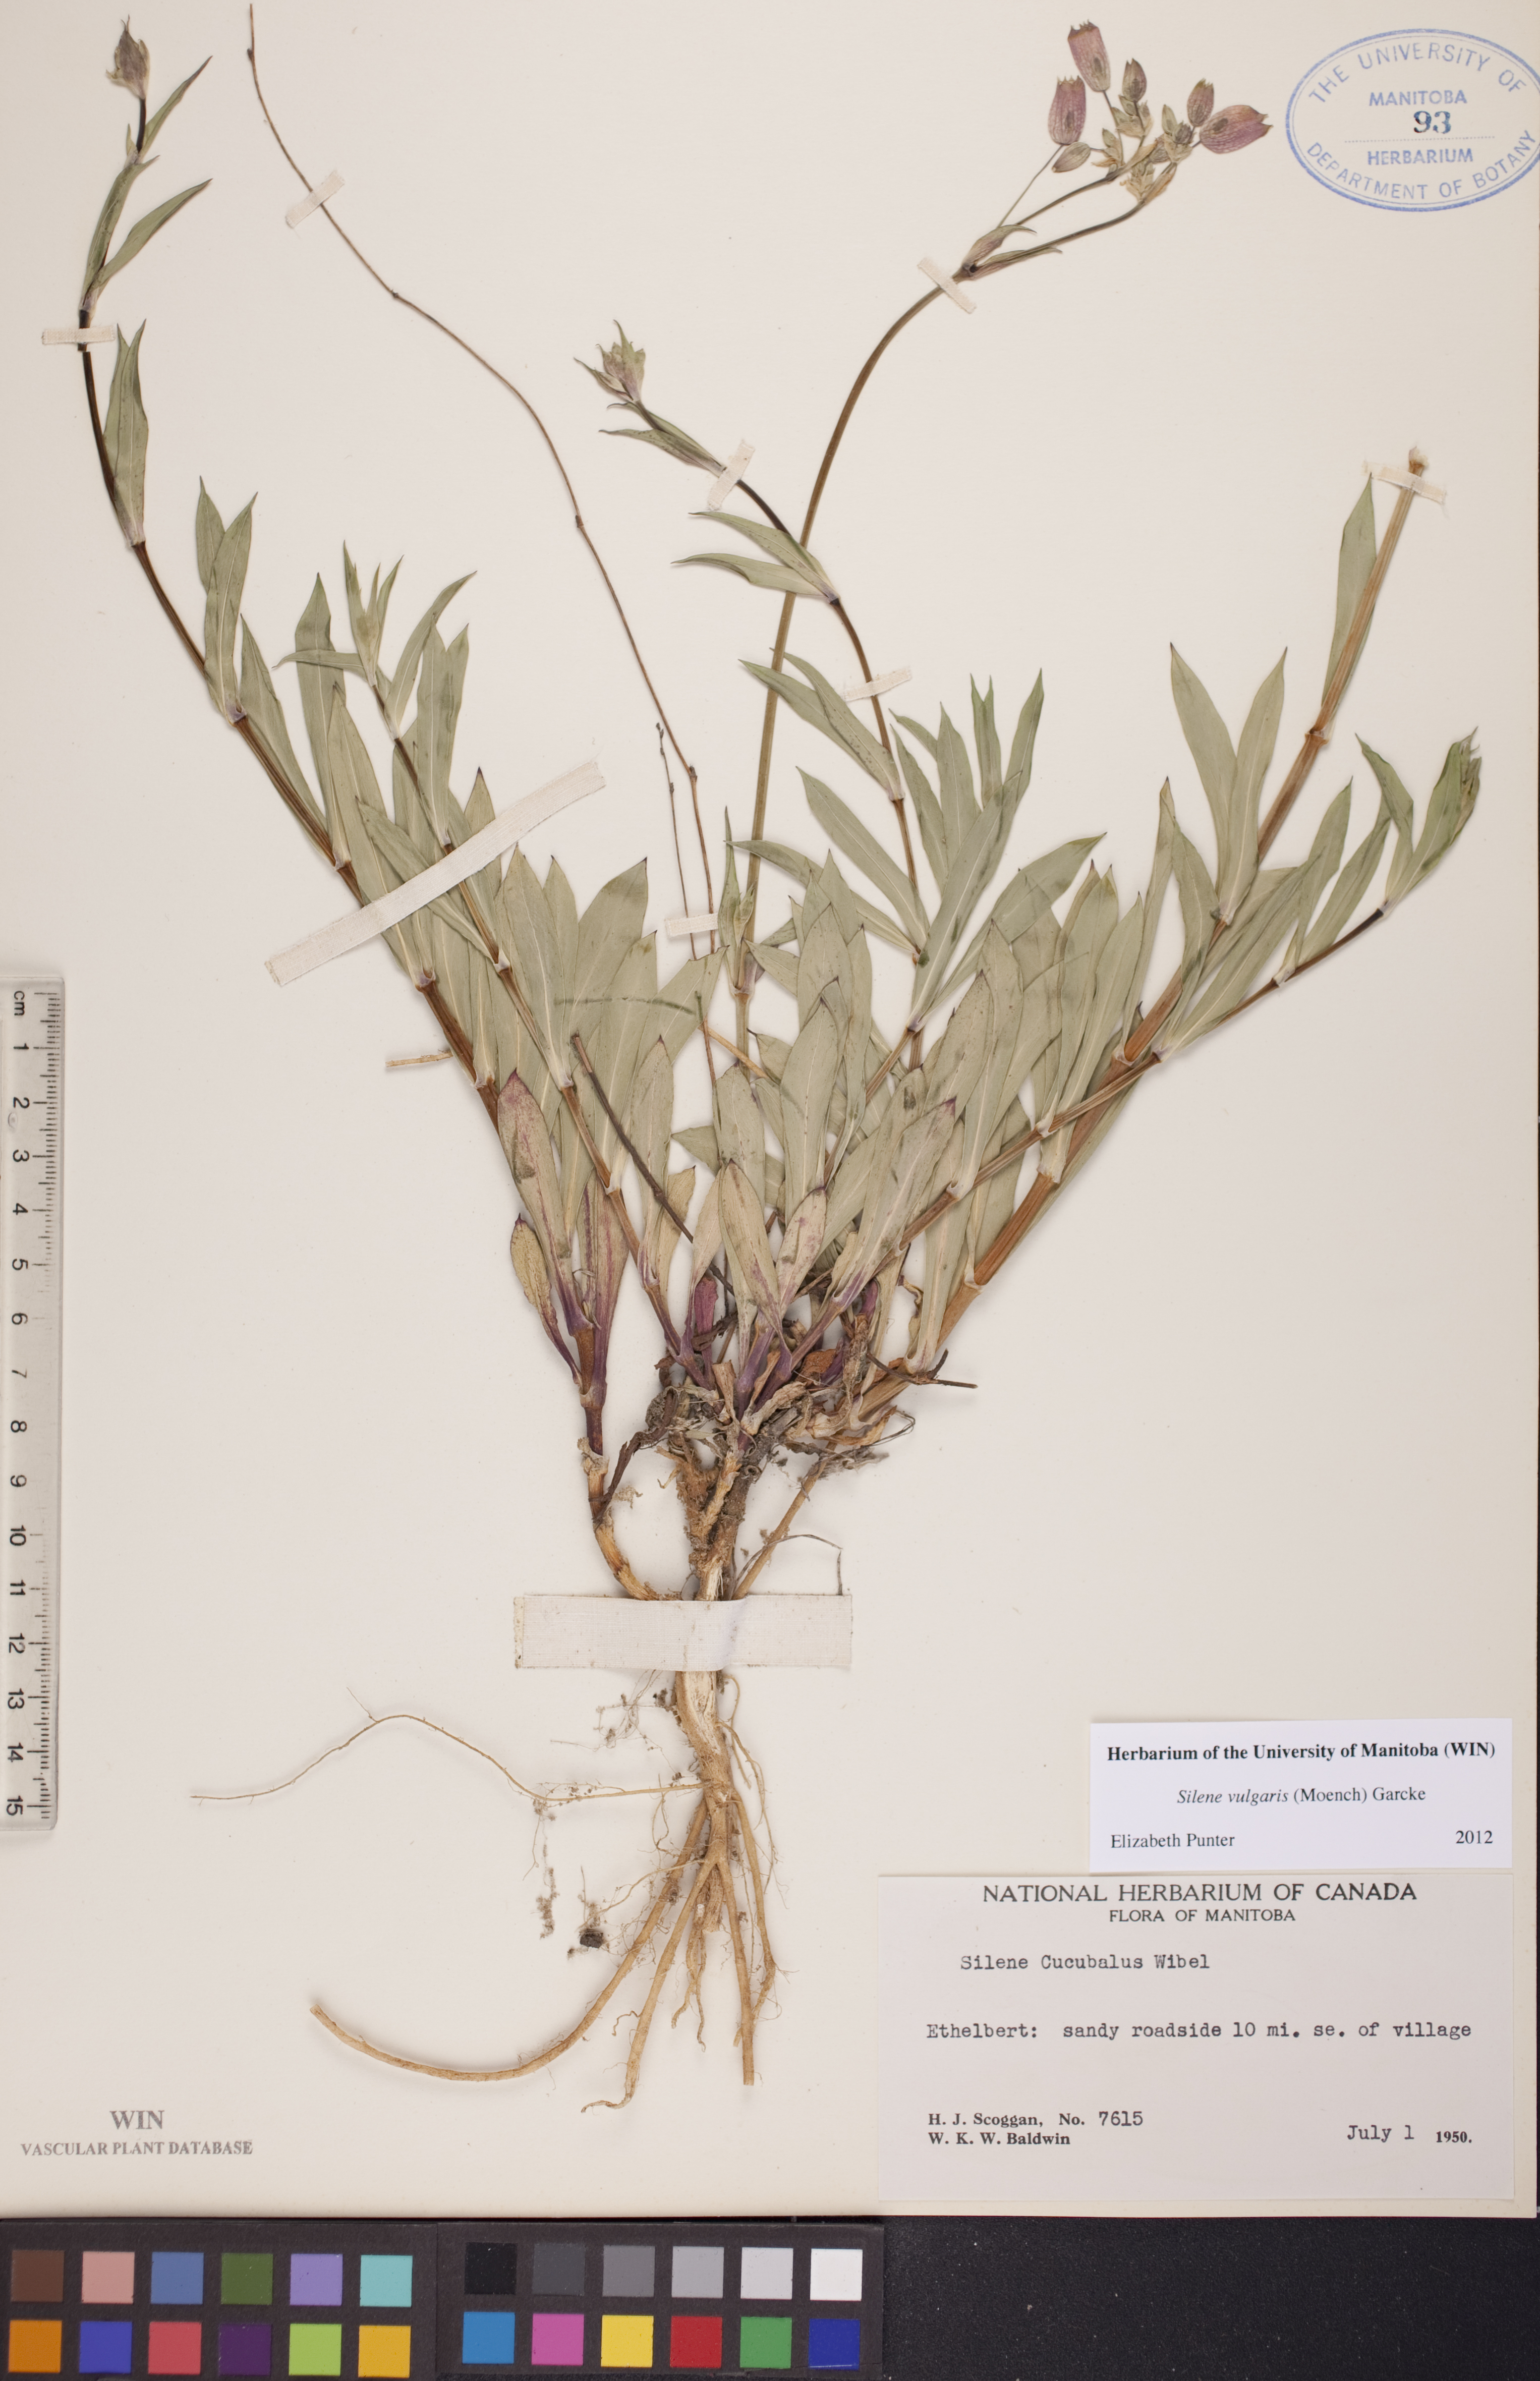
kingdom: Plantae
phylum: Tracheophyta
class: Magnoliopsida
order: Caryophyllales
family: Caryophyllaceae
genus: Silene
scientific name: Silene vulgaris
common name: Bladder campion
